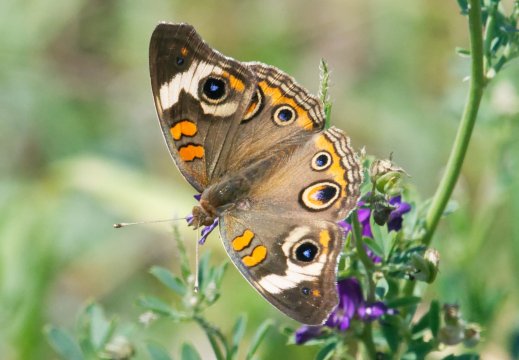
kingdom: Animalia
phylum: Arthropoda
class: Insecta
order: Lepidoptera
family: Nymphalidae
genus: Junonia
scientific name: Junonia coenia
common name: Common Buckeye
